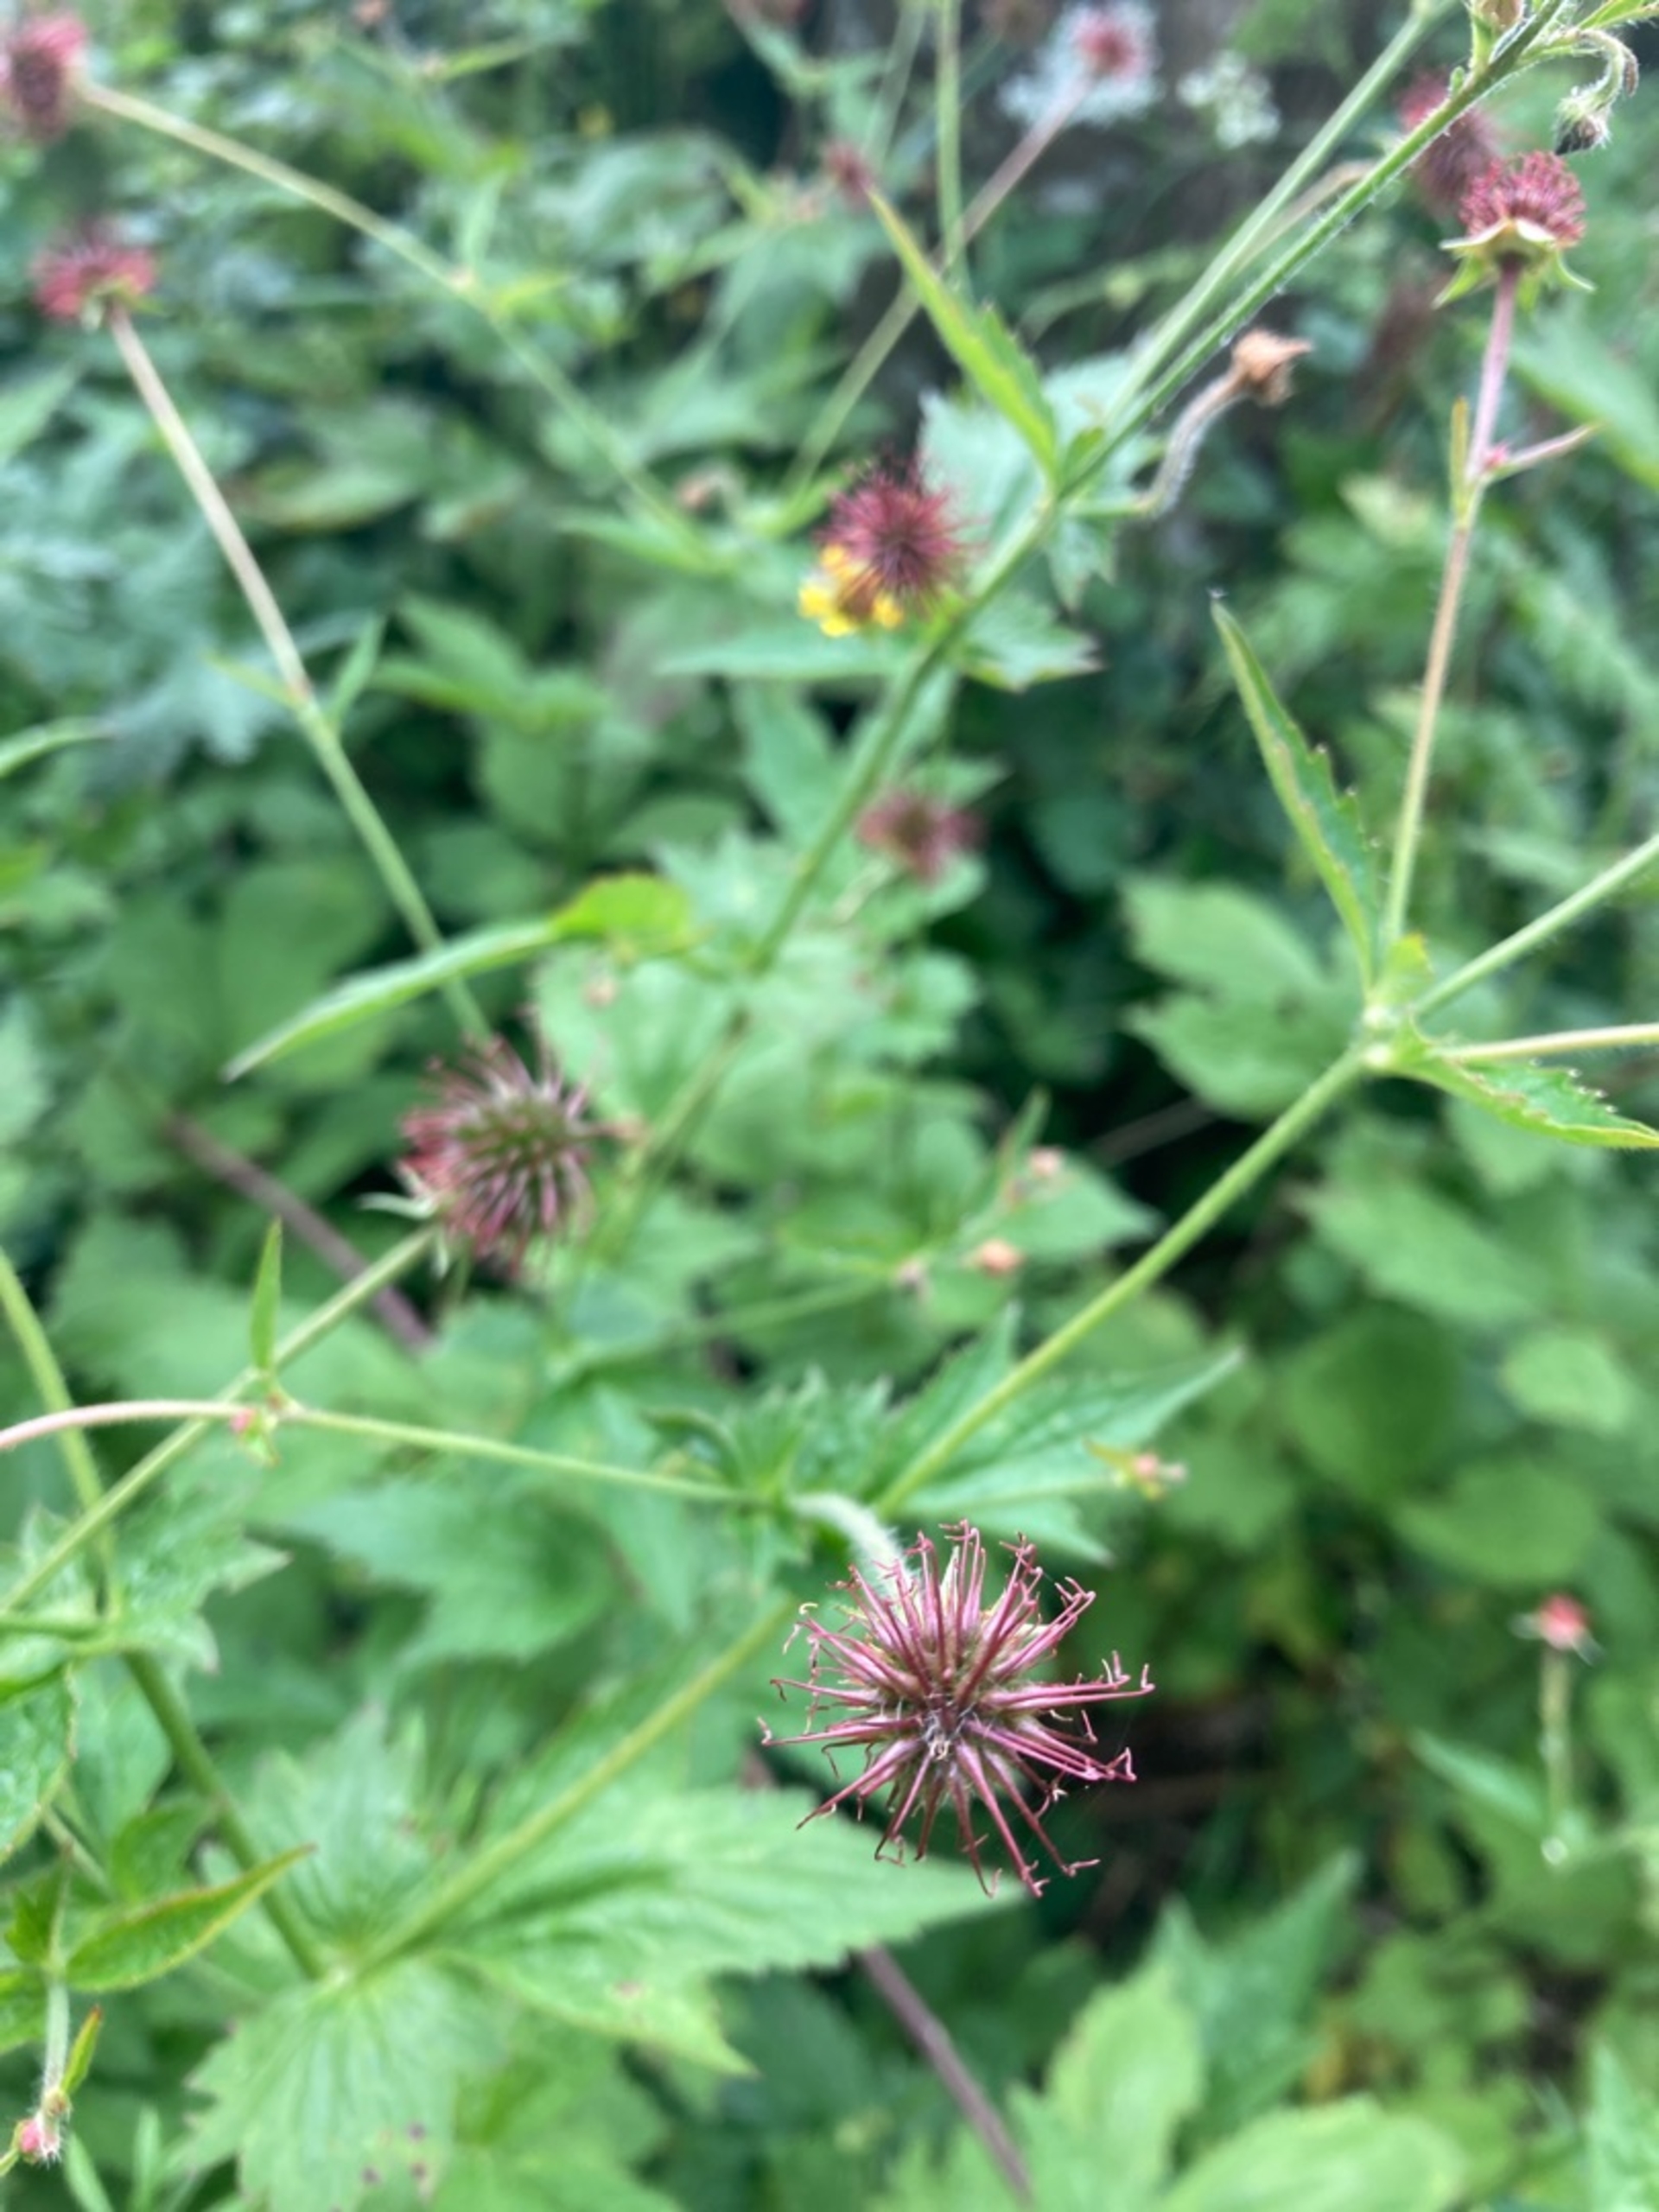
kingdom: Plantae
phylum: Tracheophyta
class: Magnoliopsida
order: Rosales
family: Rosaceae
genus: Geum
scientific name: Geum urbanum
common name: Feber-nellikerod
